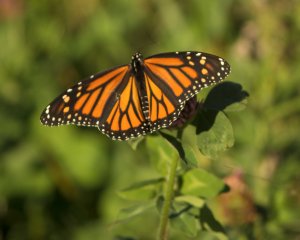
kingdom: Animalia
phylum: Arthropoda
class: Insecta
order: Lepidoptera
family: Nymphalidae
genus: Danaus
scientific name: Danaus plexippus
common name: Monarch
